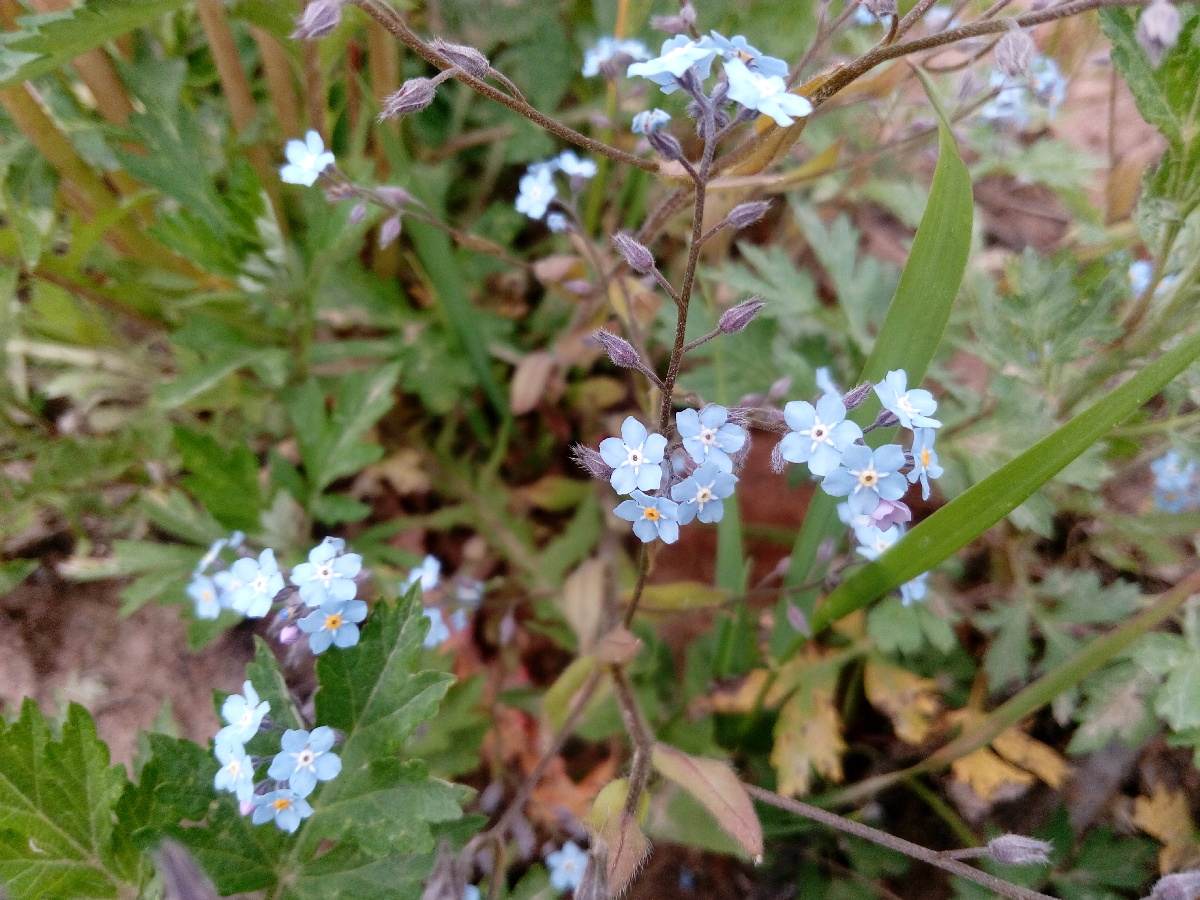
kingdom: Plantae
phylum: Tracheophyta
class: Magnoliopsida
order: Boraginales
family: Boraginaceae
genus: Myosotis
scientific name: Myosotis scorpioides
